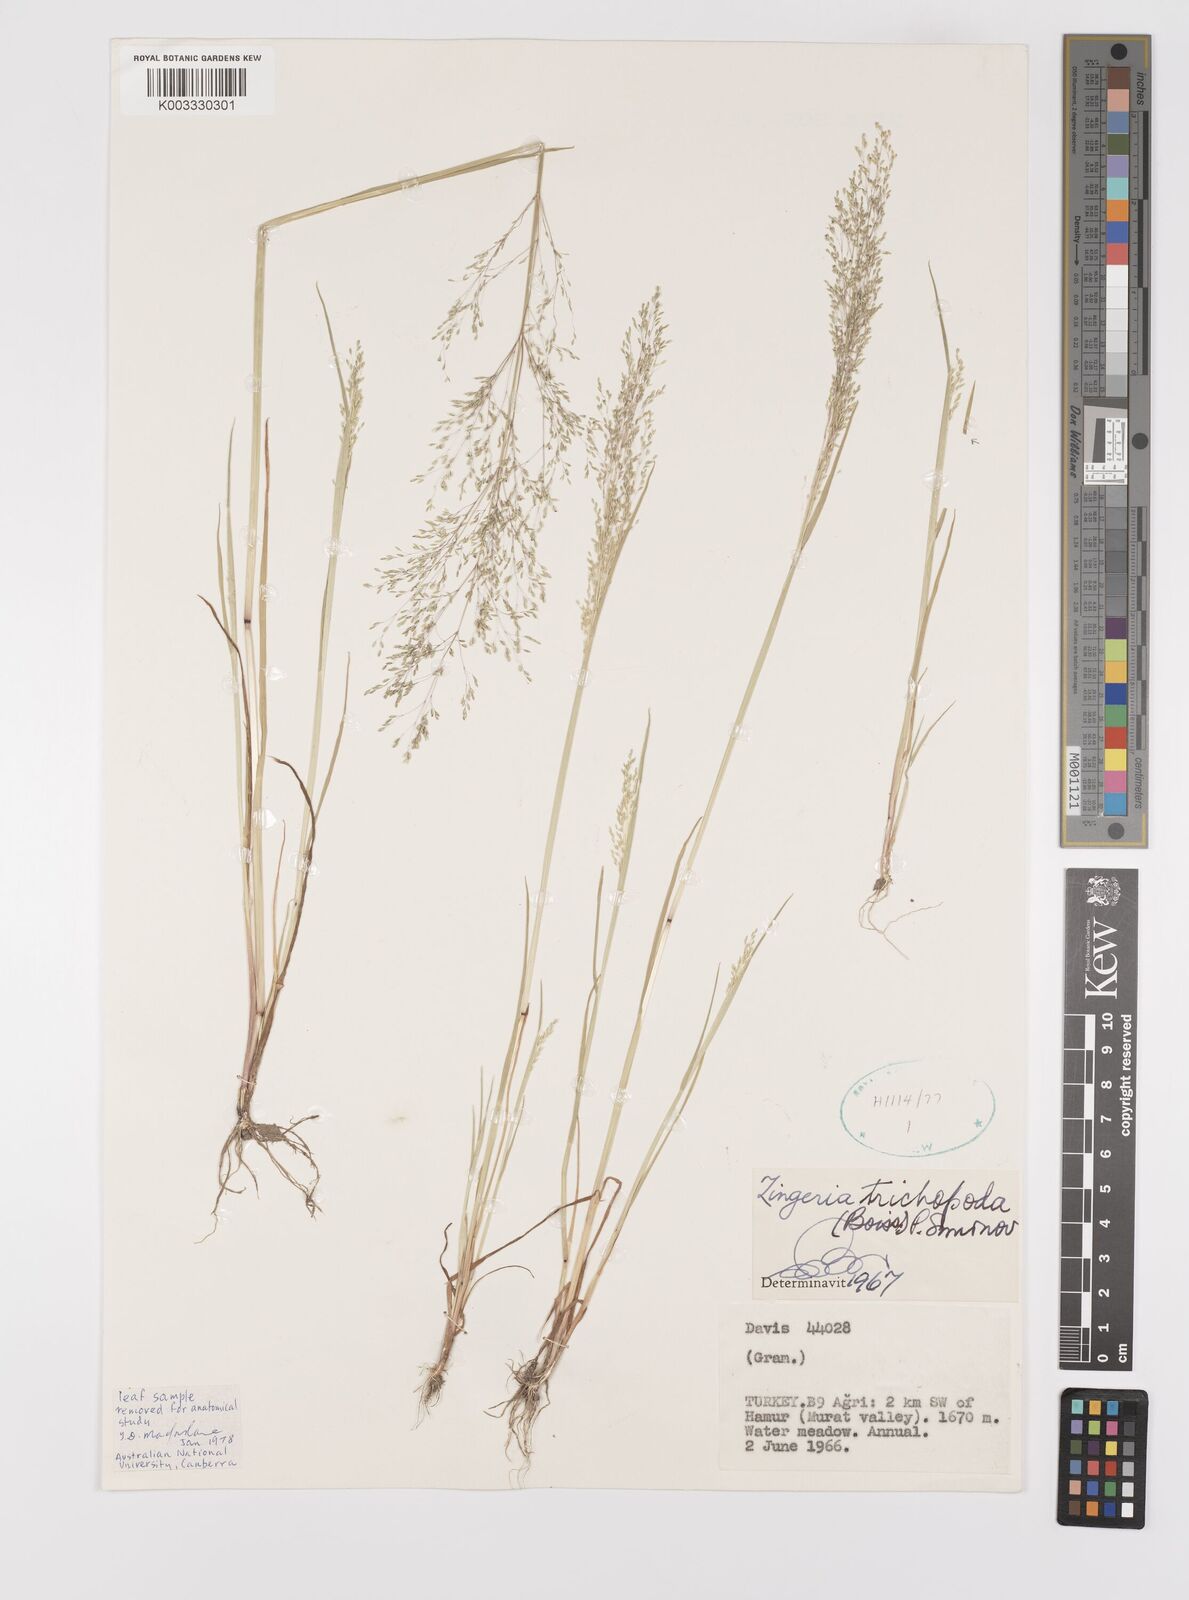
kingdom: Plantae
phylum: Tracheophyta
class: Liliopsida
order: Poales
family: Poaceae
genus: Colpodium
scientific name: Colpodium trichopodum
